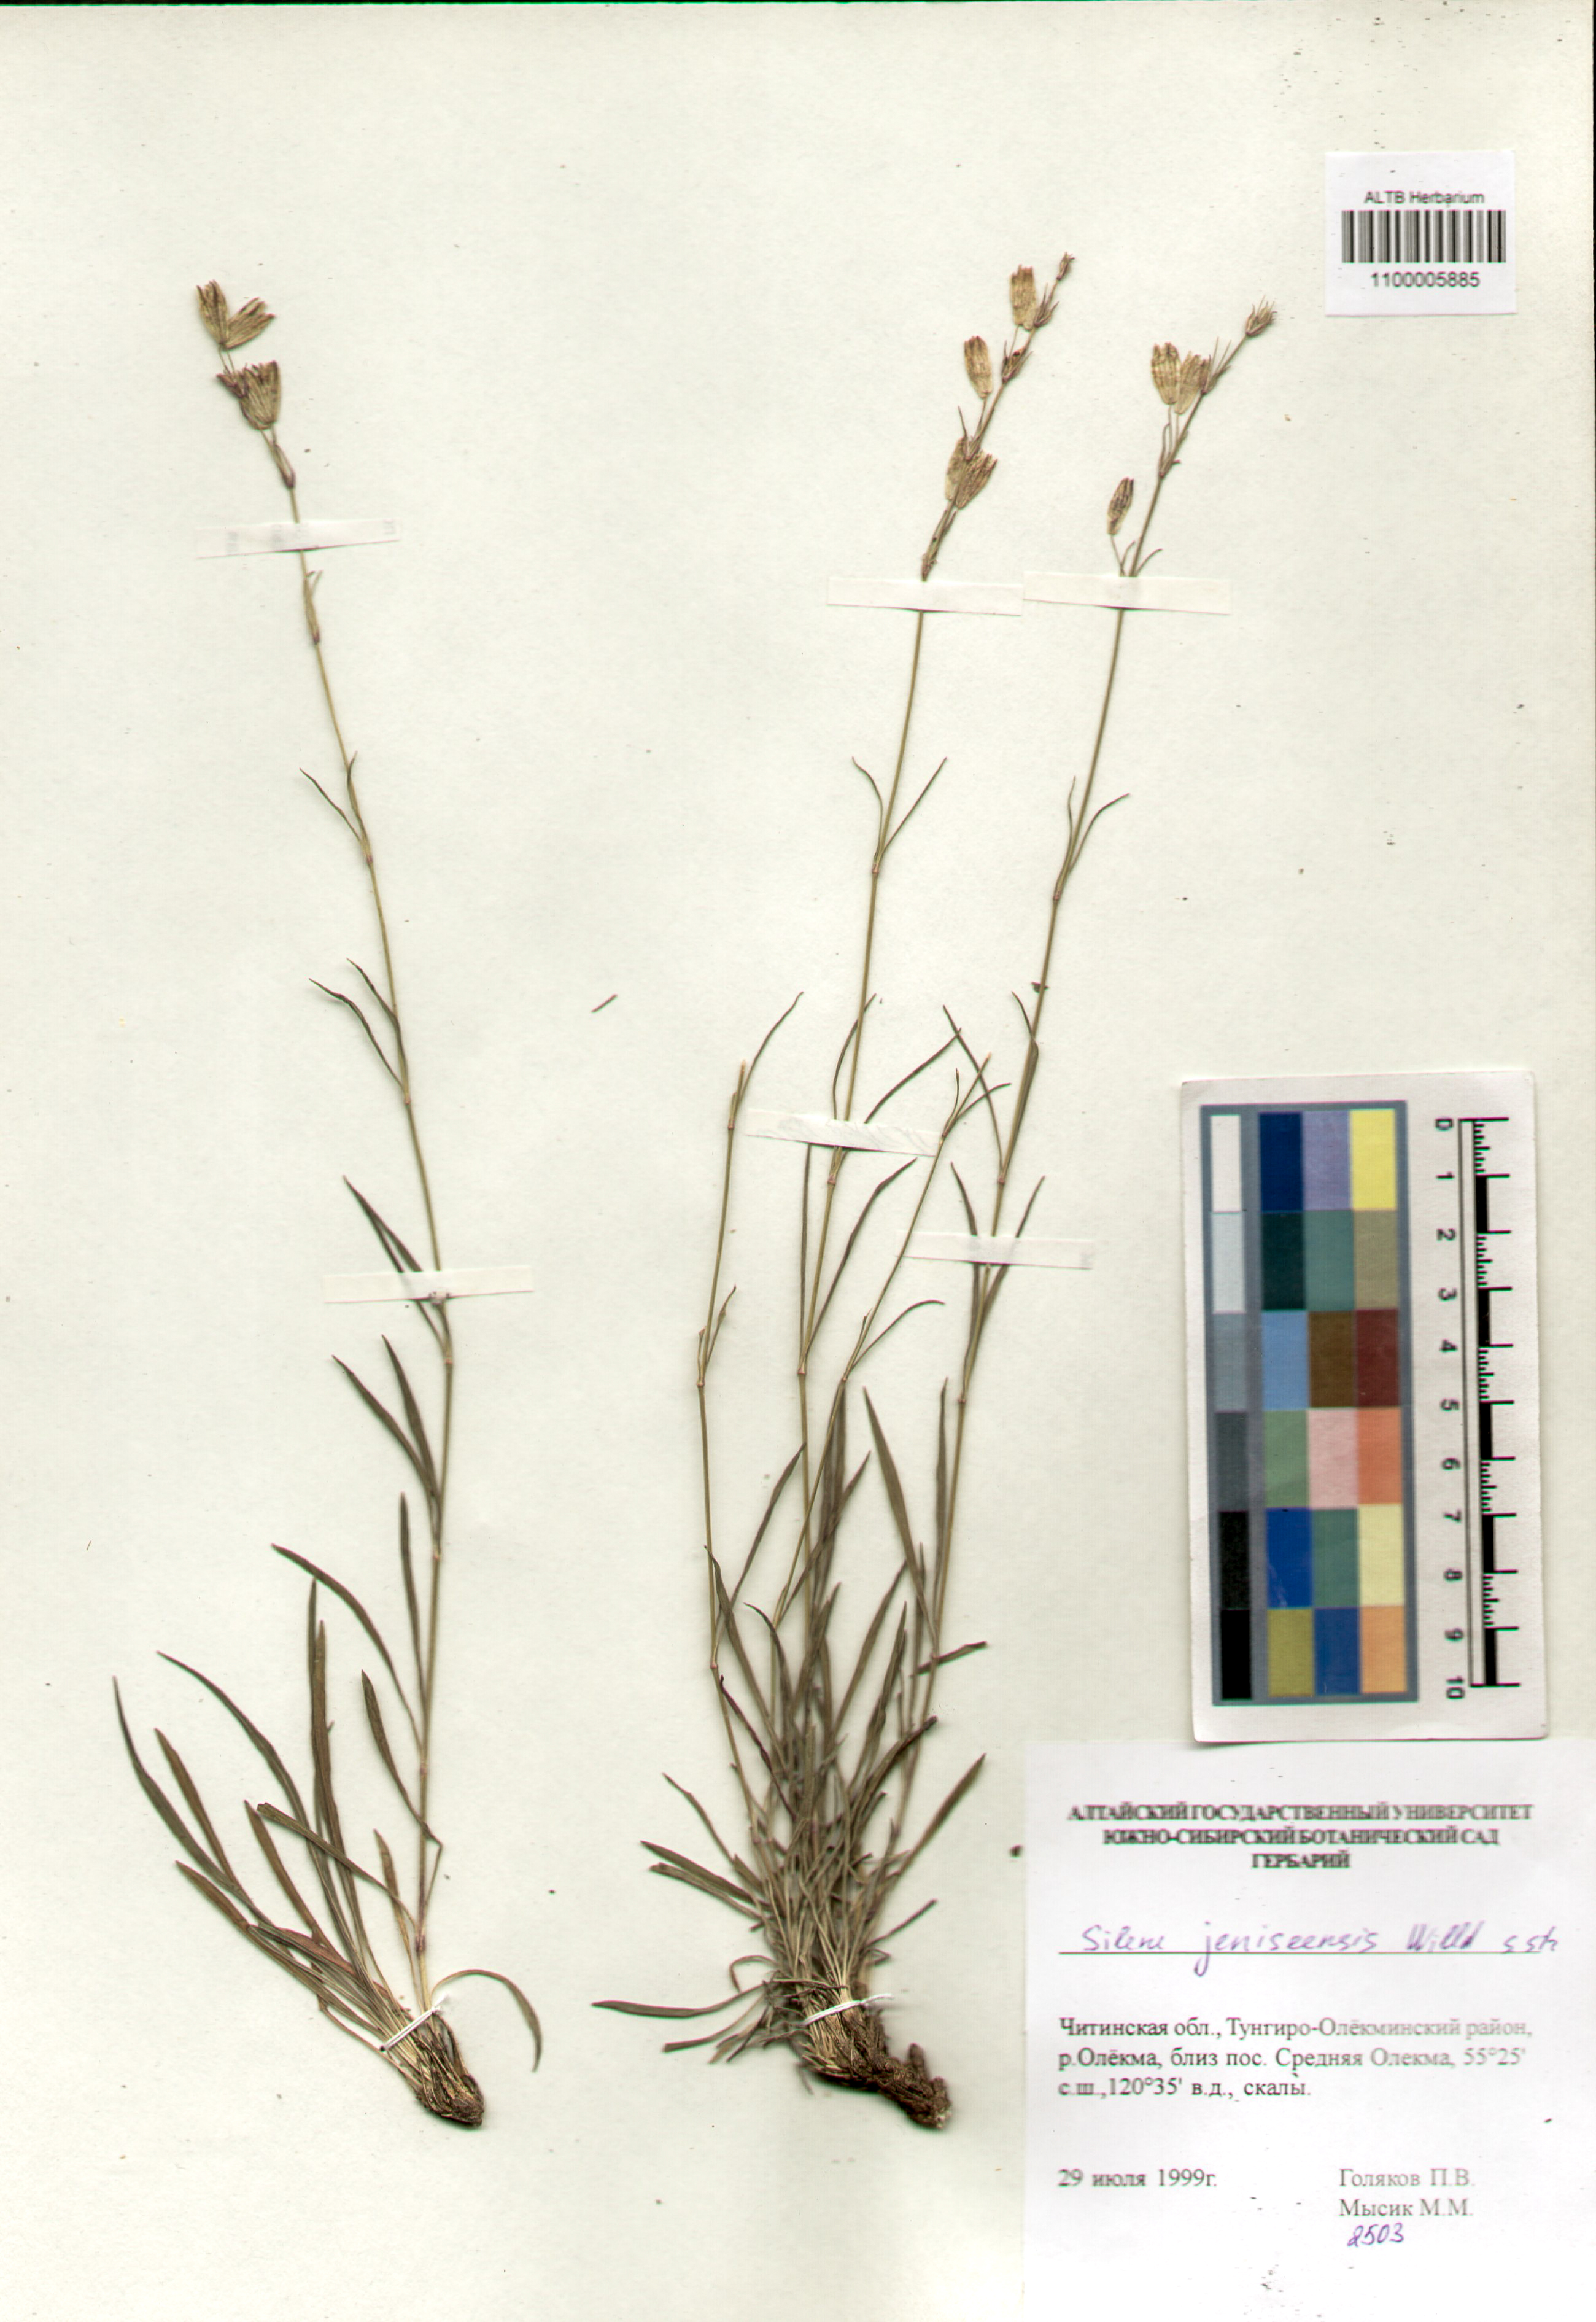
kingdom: Plantae
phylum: Tracheophyta
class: Magnoliopsida
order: Caryophyllales
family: Caryophyllaceae
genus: Silene
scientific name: Silene jeniseensis
